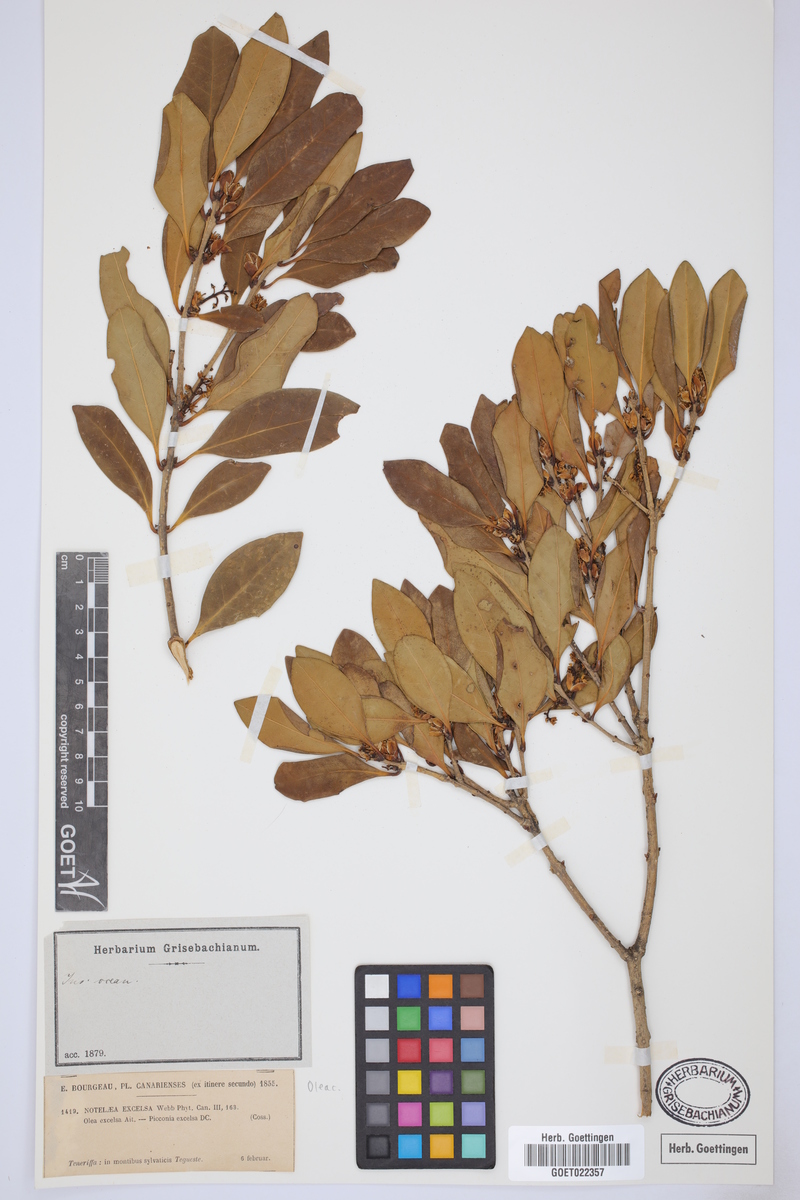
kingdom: Plantae
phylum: Tracheophyta
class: Magnoliopsida
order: Lamiales
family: Oleaceae
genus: Picconia
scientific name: Picconia excelsa
